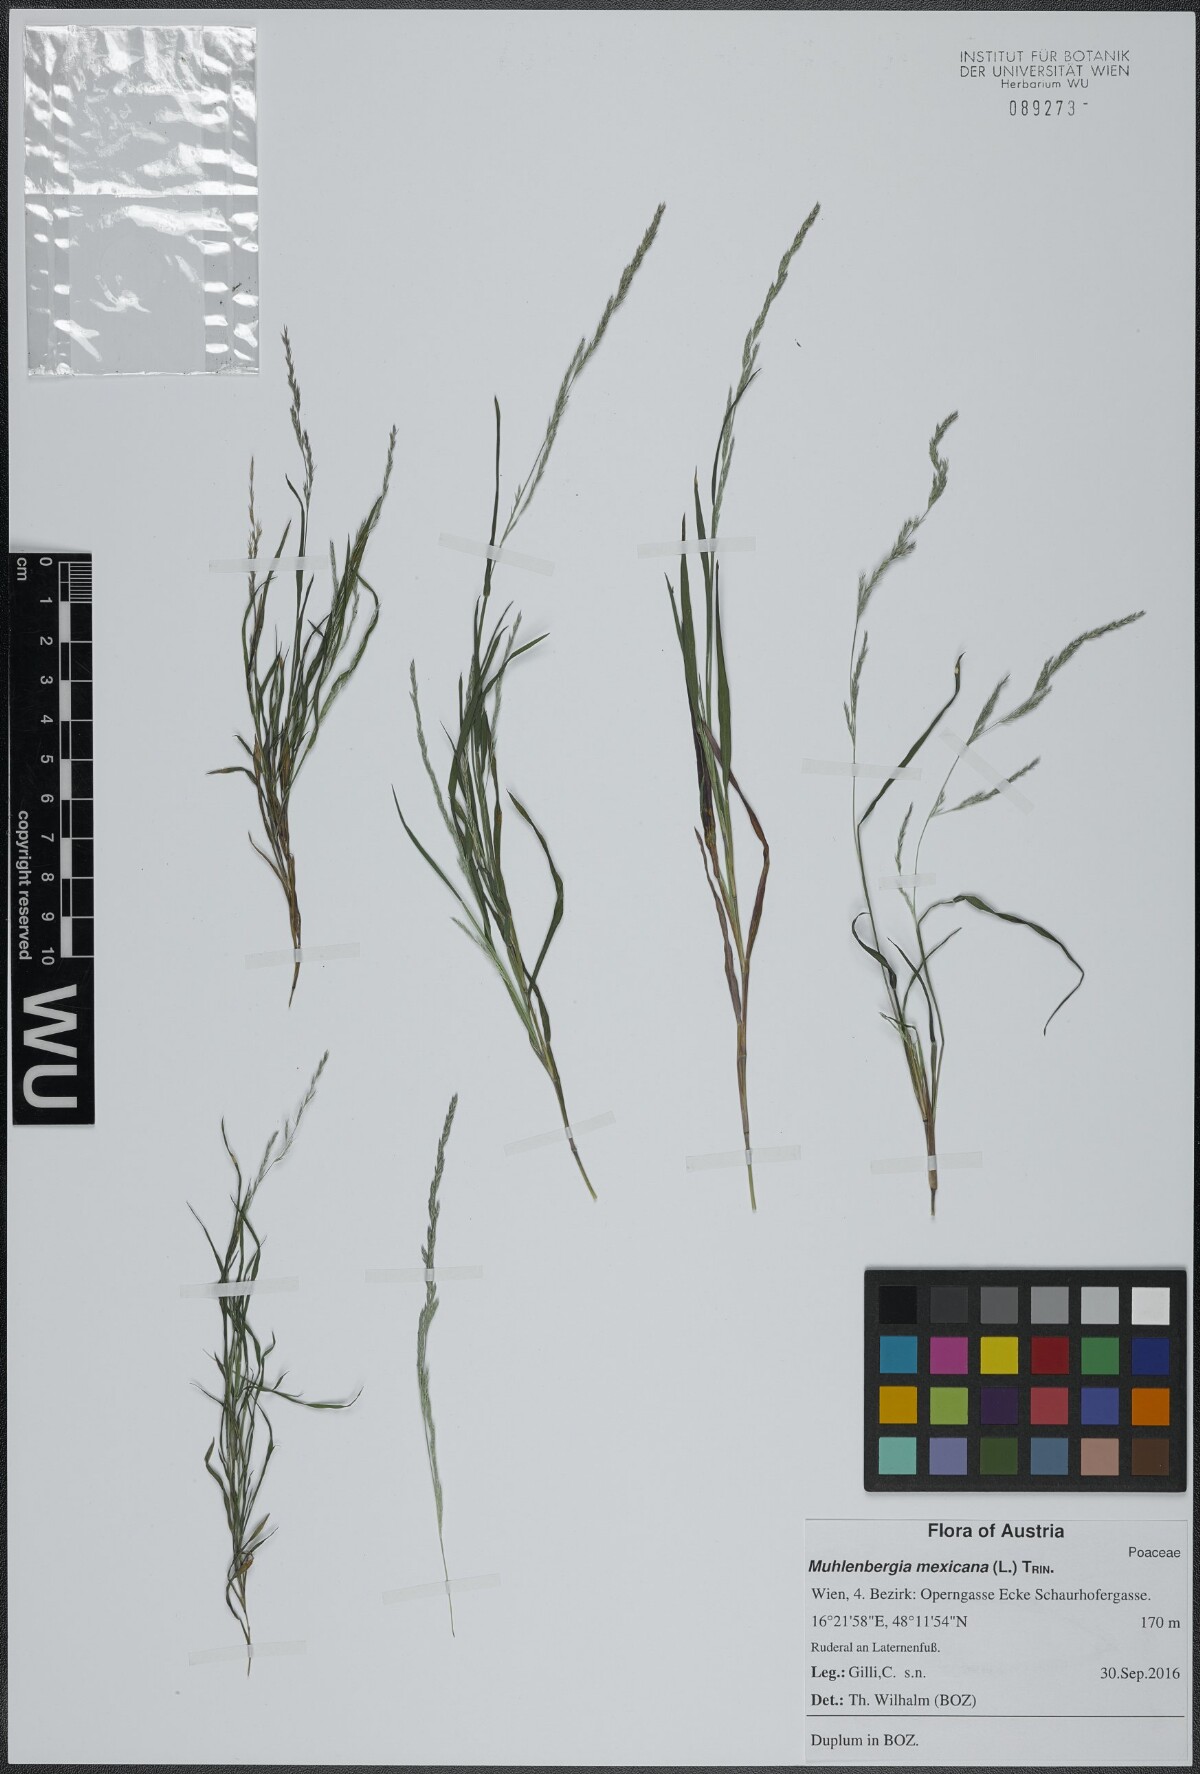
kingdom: Plantae
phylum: Tracheophyta
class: Liliopsida
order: Poales
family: Poaceae
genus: Muhlenbergia
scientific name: Muhlenbergia mexicana
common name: Mexican muhly
